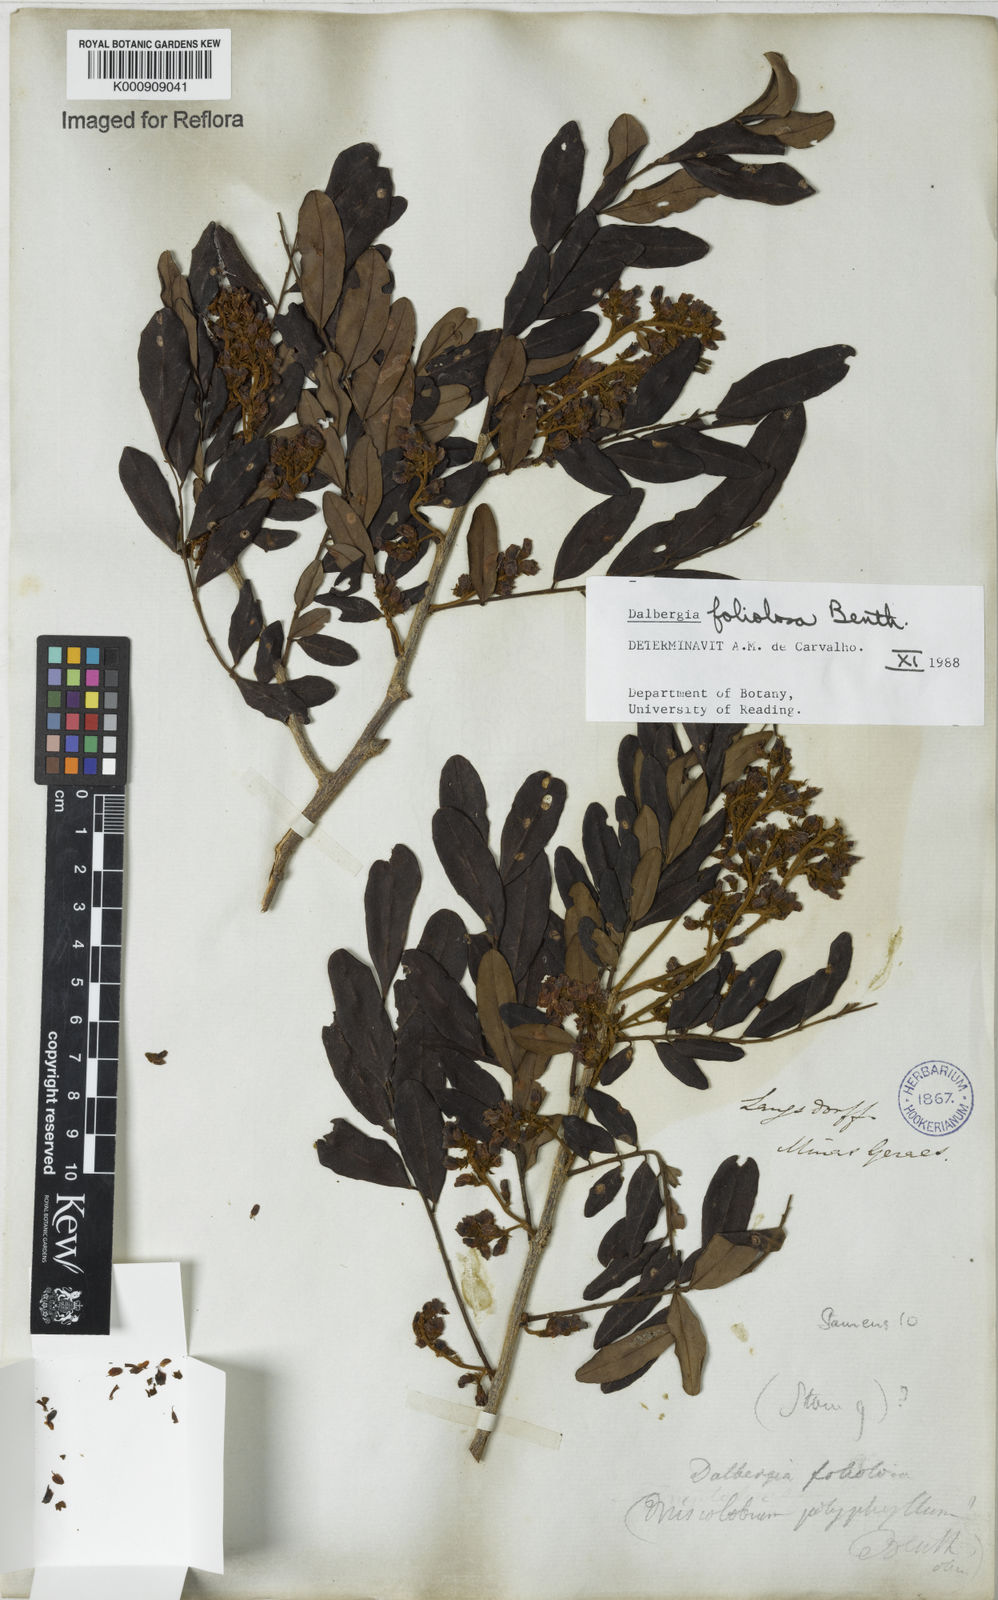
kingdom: Plantae
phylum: Tracheophyta
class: Magnoliopsida
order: Fabales
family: Fabaceae
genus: Dalbergia
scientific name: Dalbergia foliolosa
